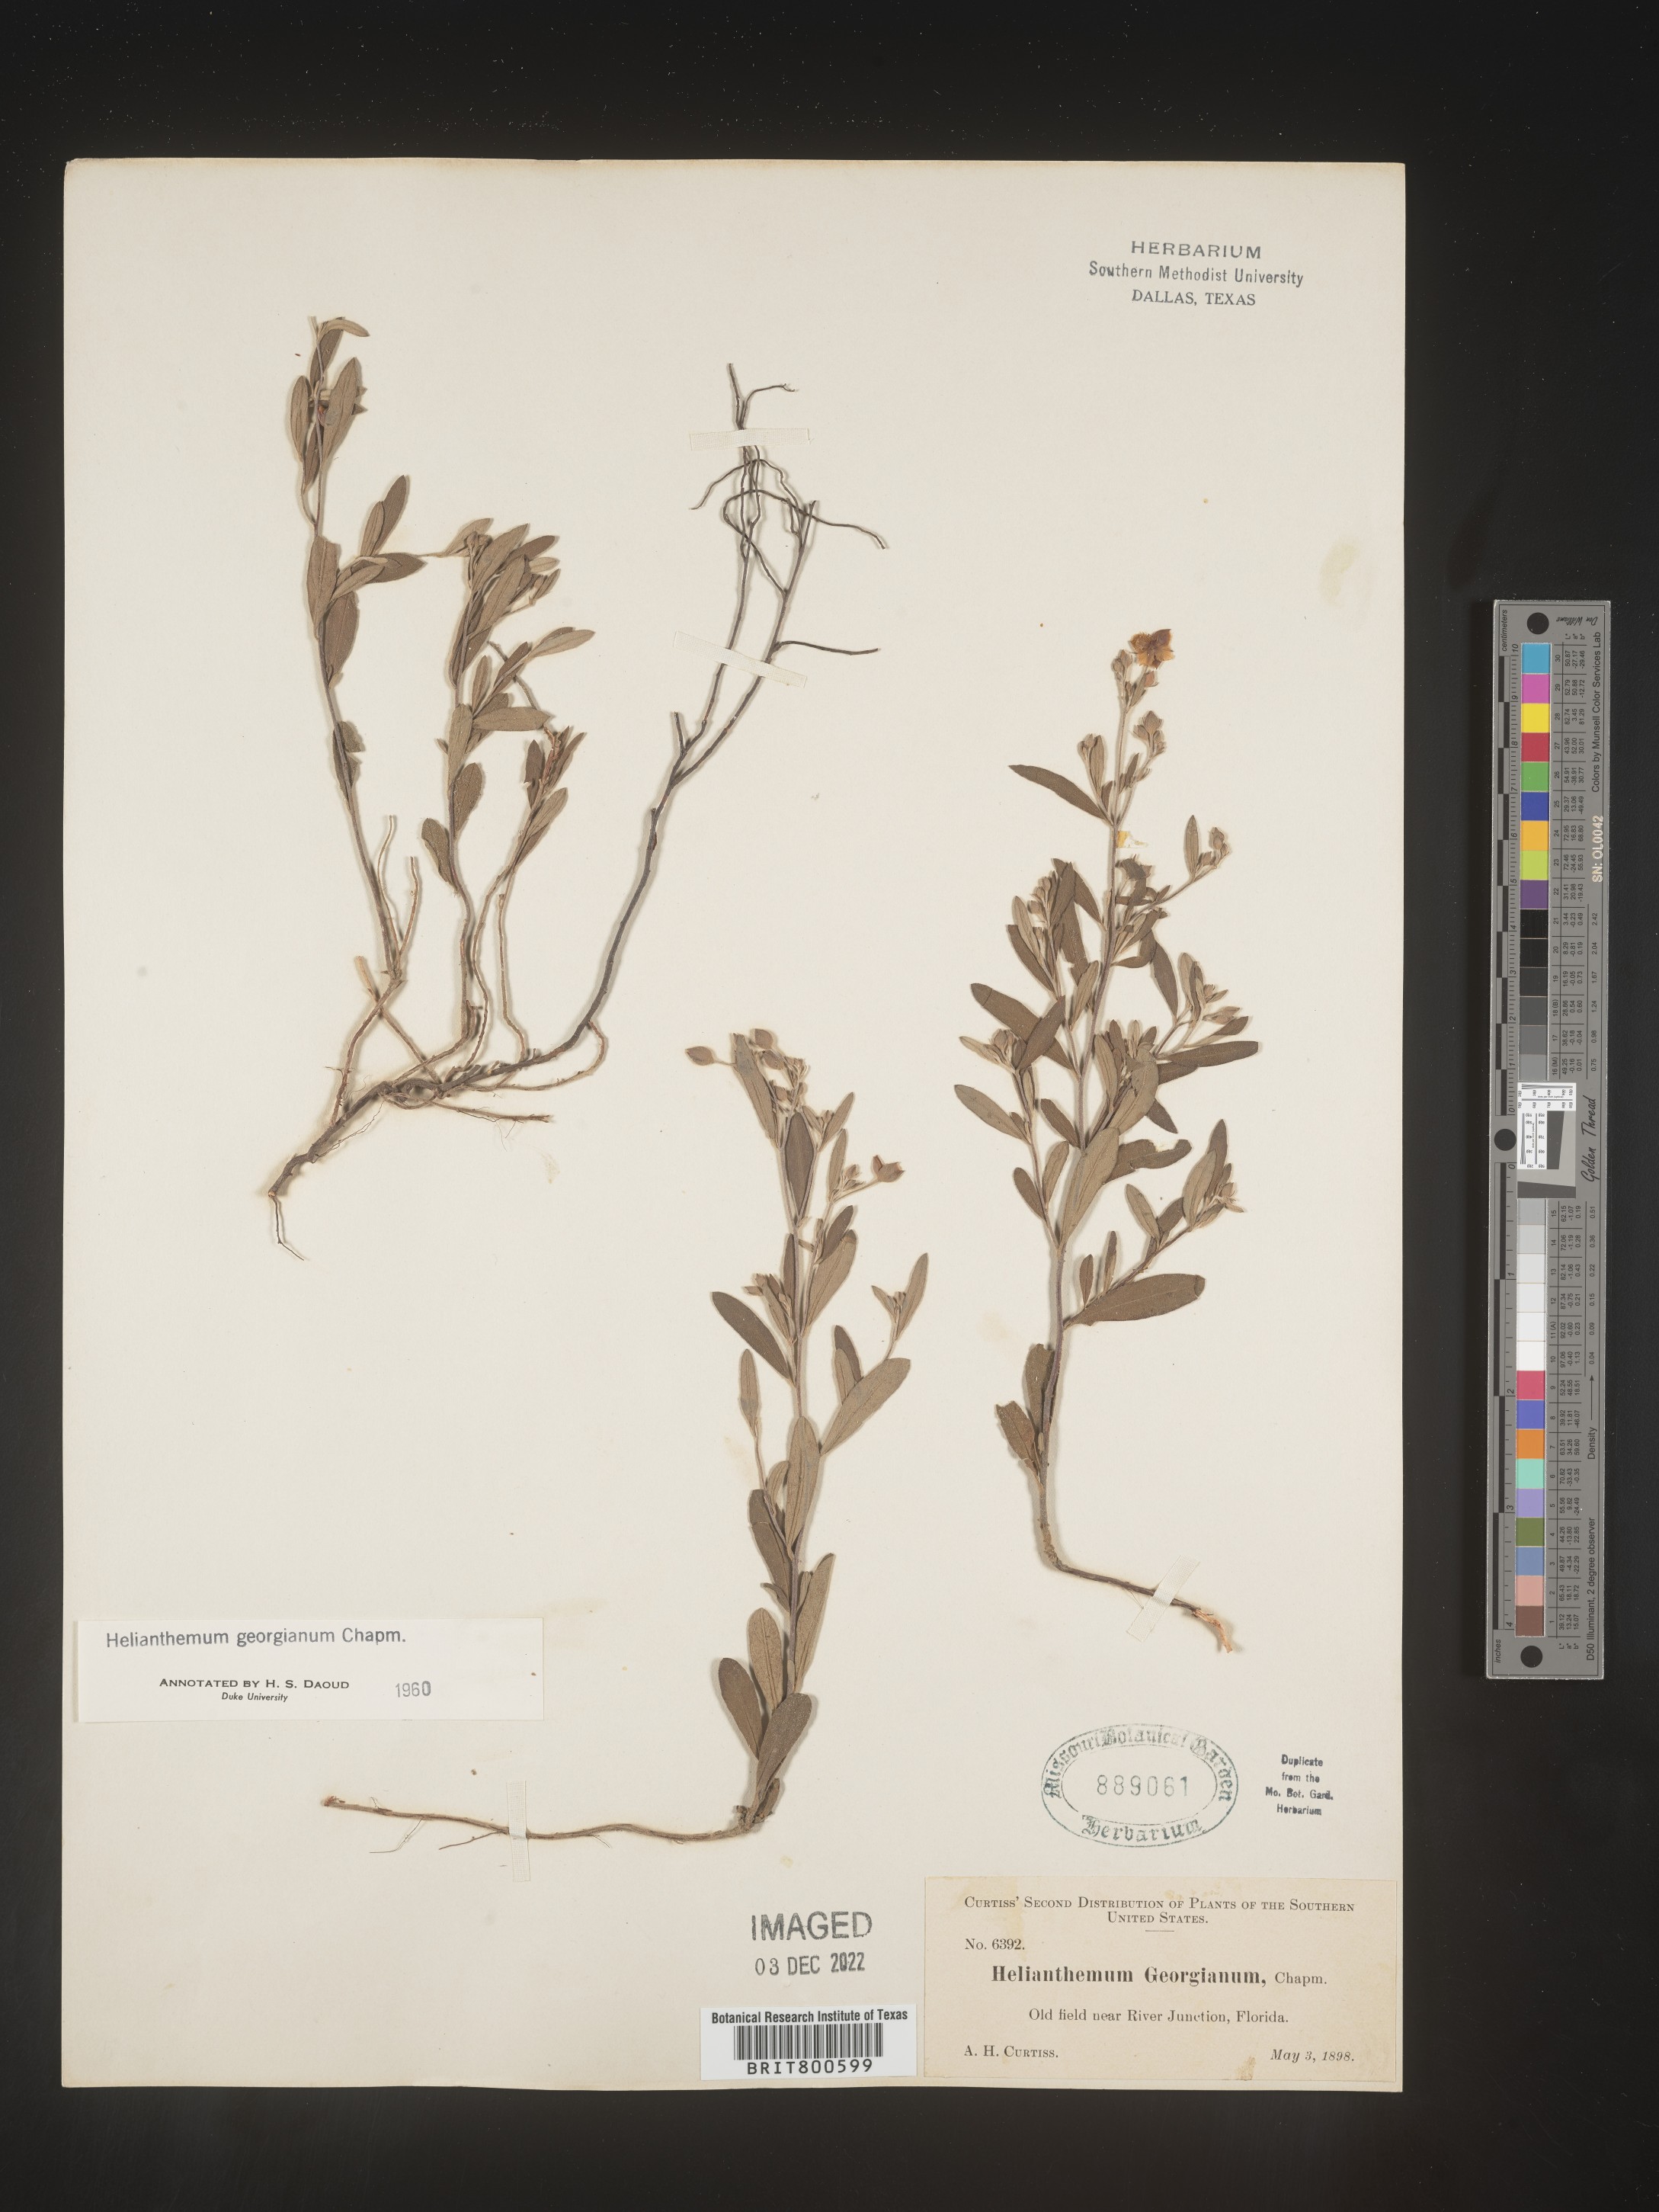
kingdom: Plantae
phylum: Tracheophyta
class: Magnoliopsida
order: Malvales
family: Cistaceae
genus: Crocanthemum
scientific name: Crocanthemum georgianum
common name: Georgia frostweed
